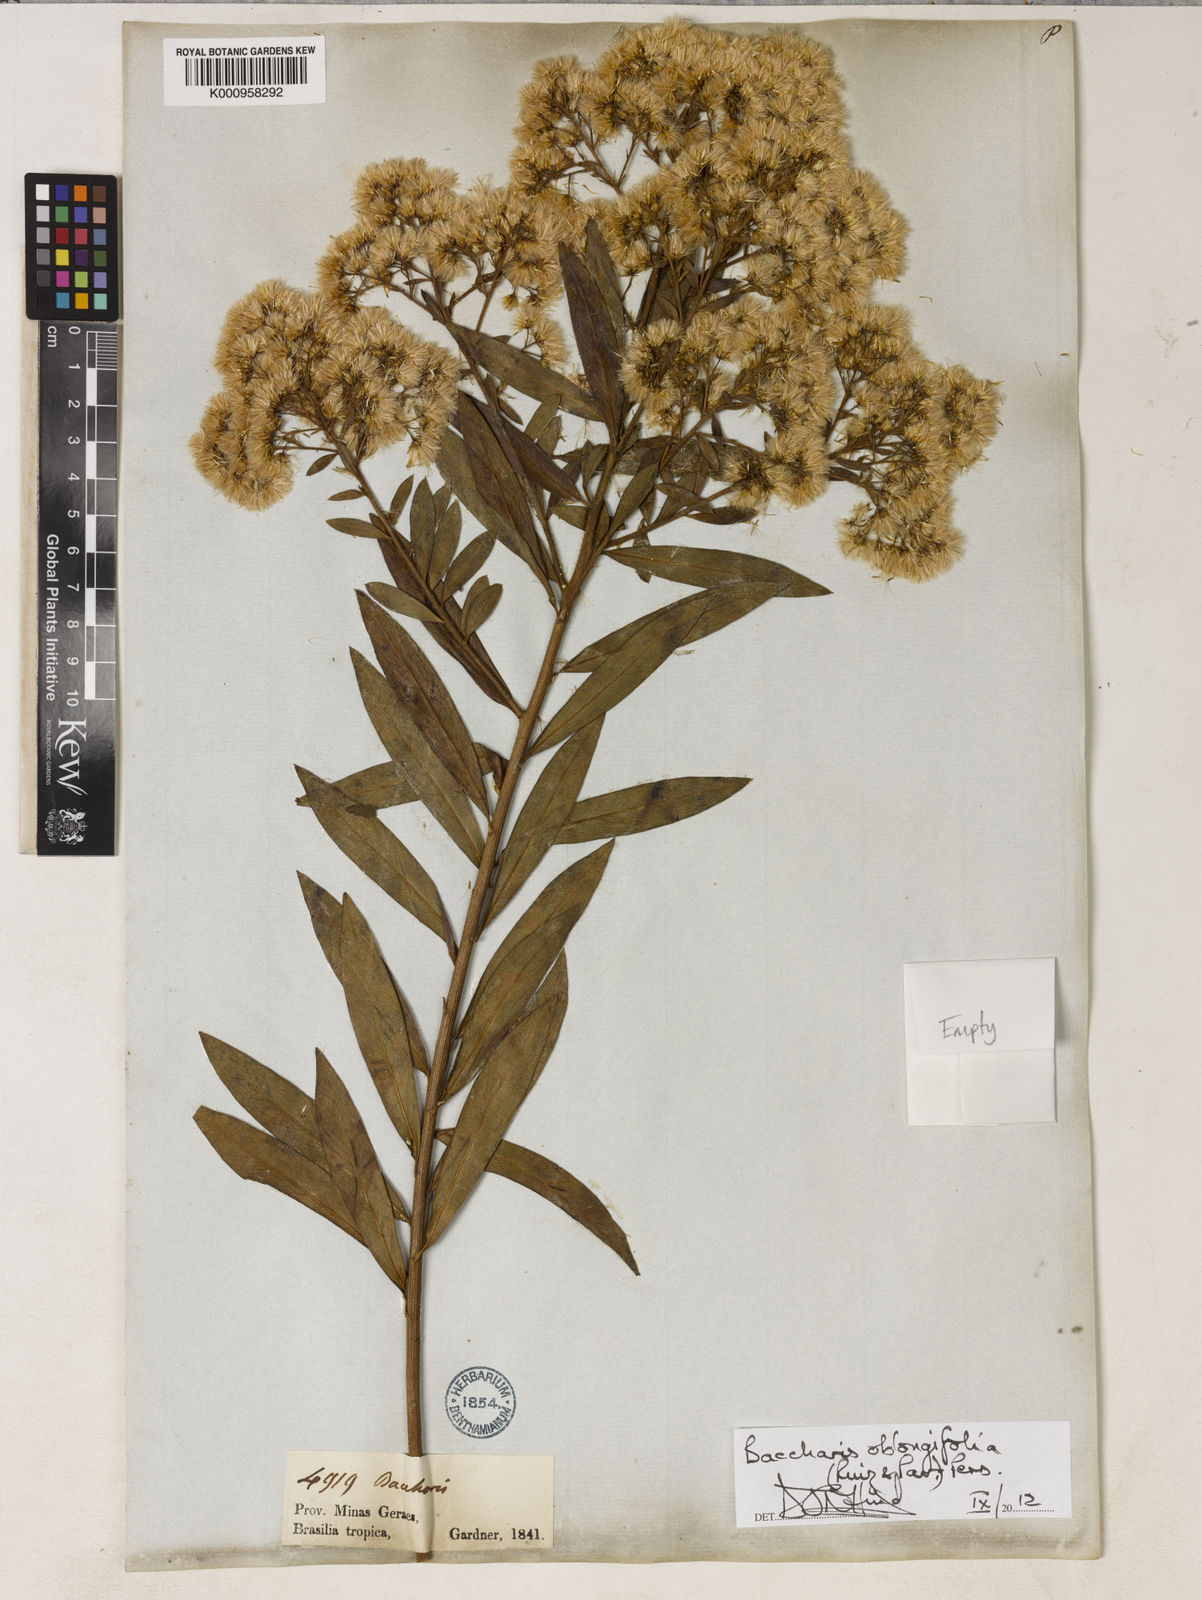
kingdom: Plantae
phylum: Tracheophyta
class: Magnoliopsida
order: Asterales
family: Asteraceae
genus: Baccharis
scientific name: Baccharis oblongifolia
